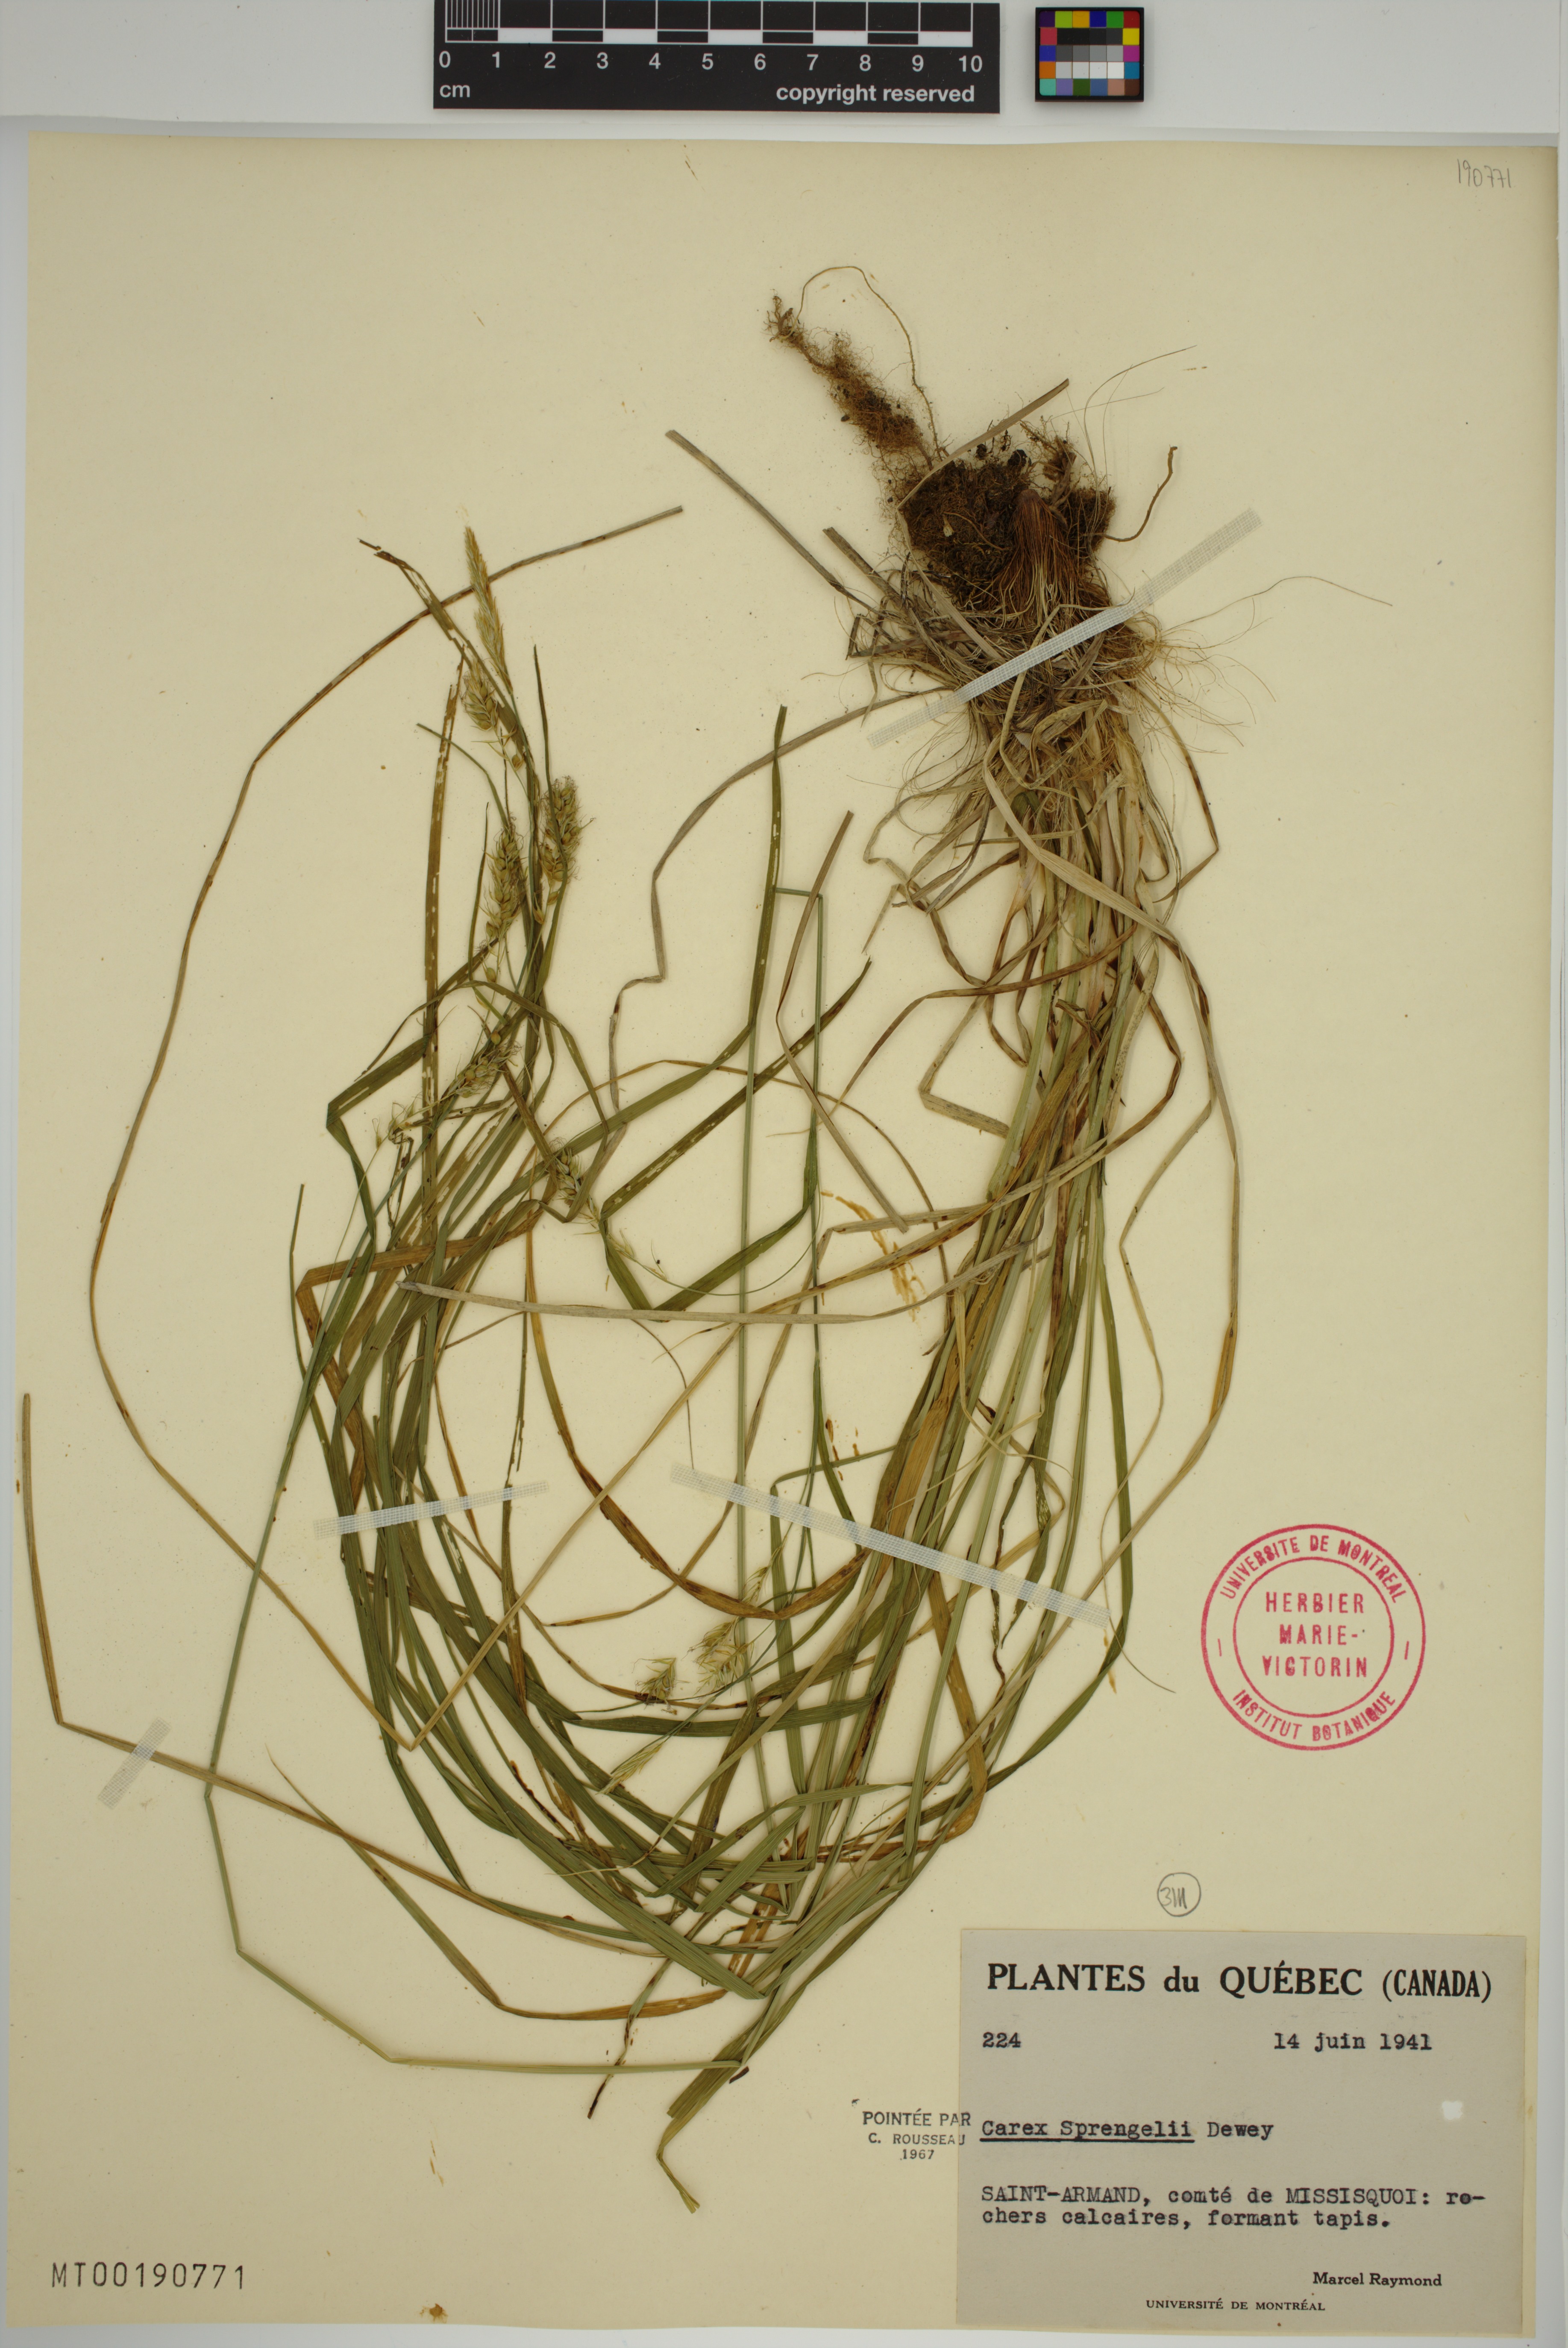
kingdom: Plantae
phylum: Tracheophyta
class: Liliopsida
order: Poales
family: Cyperaceae
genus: Carex
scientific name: Carex sprengelii
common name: Long-beaked sedge
